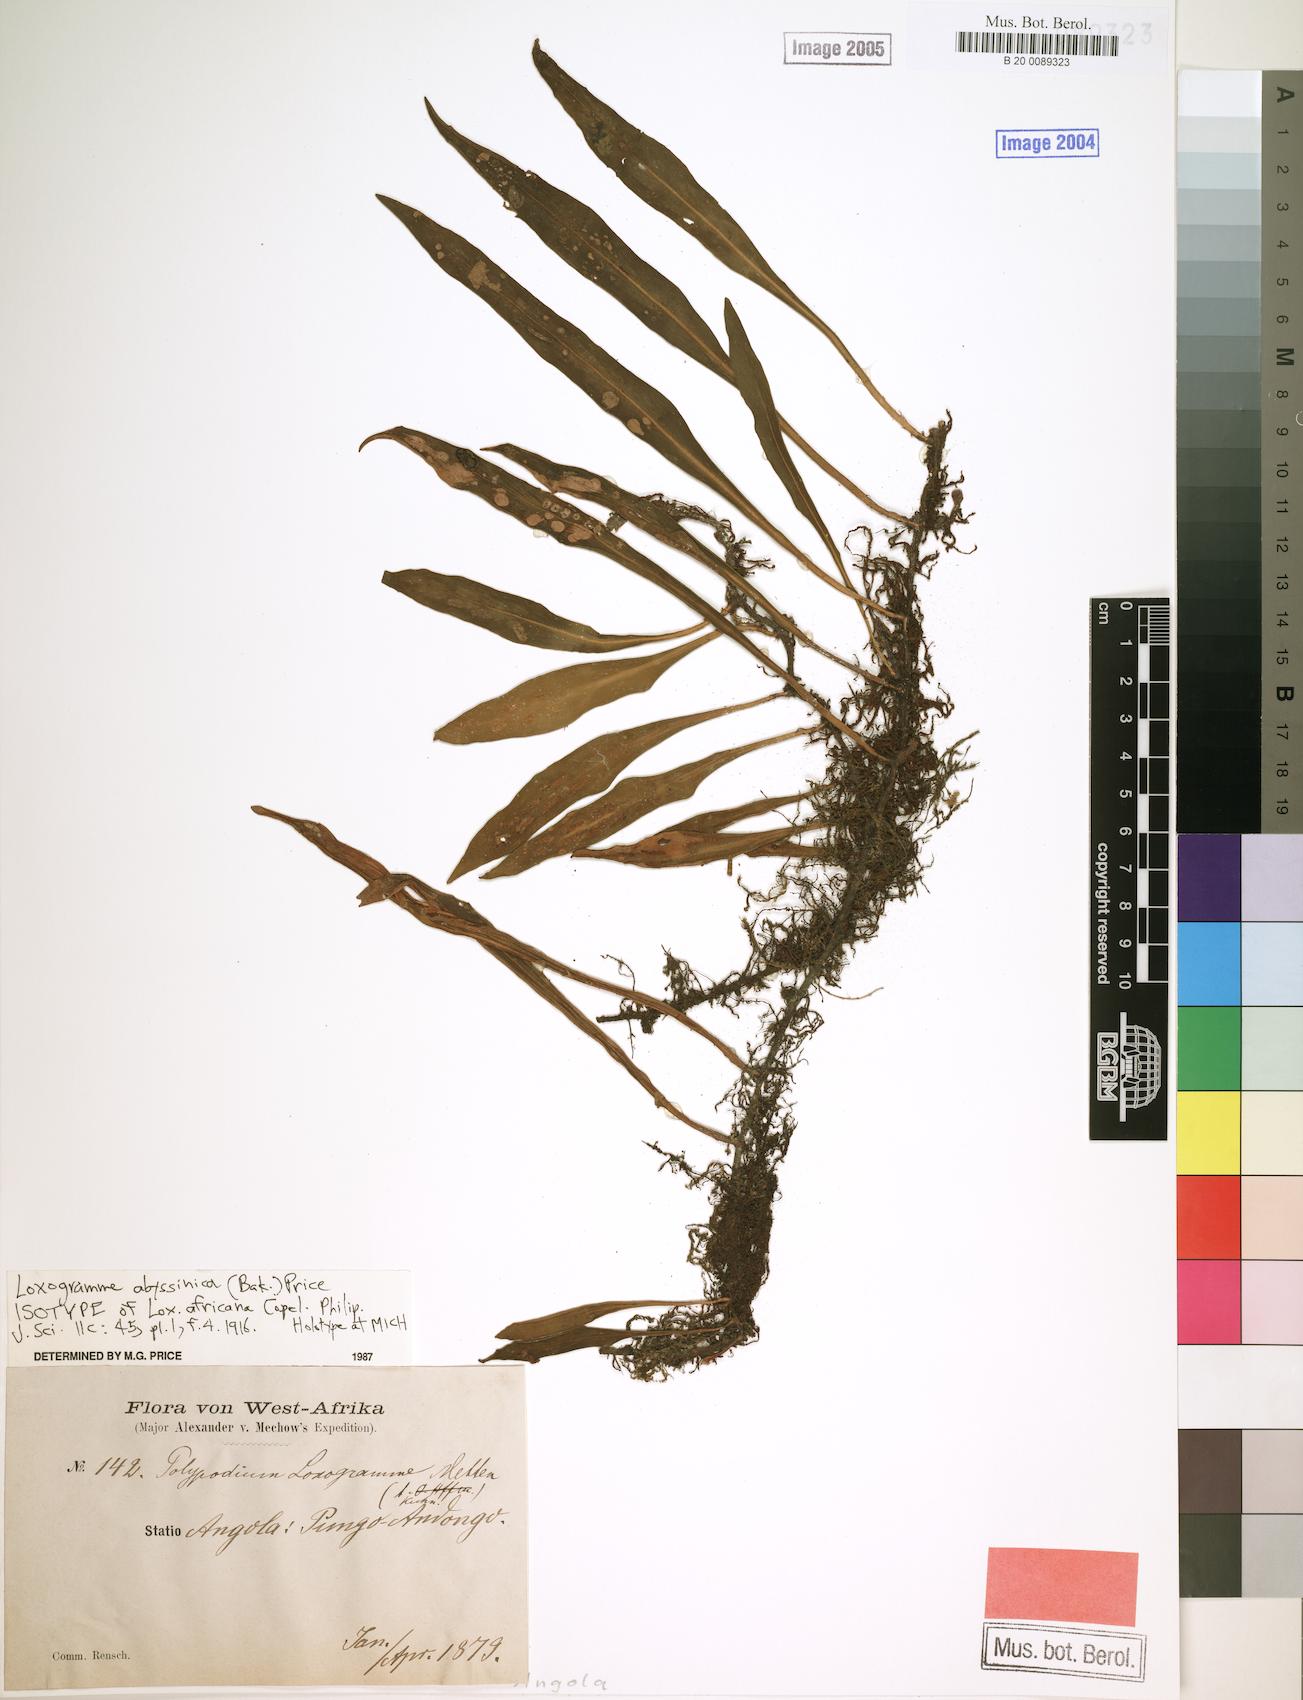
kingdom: Plantae
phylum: Tracheophyta
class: Polypodiopsida
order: Polypodiales
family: Polypodiaceae
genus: Loxogramme
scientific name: Loxogramme abyssinica
